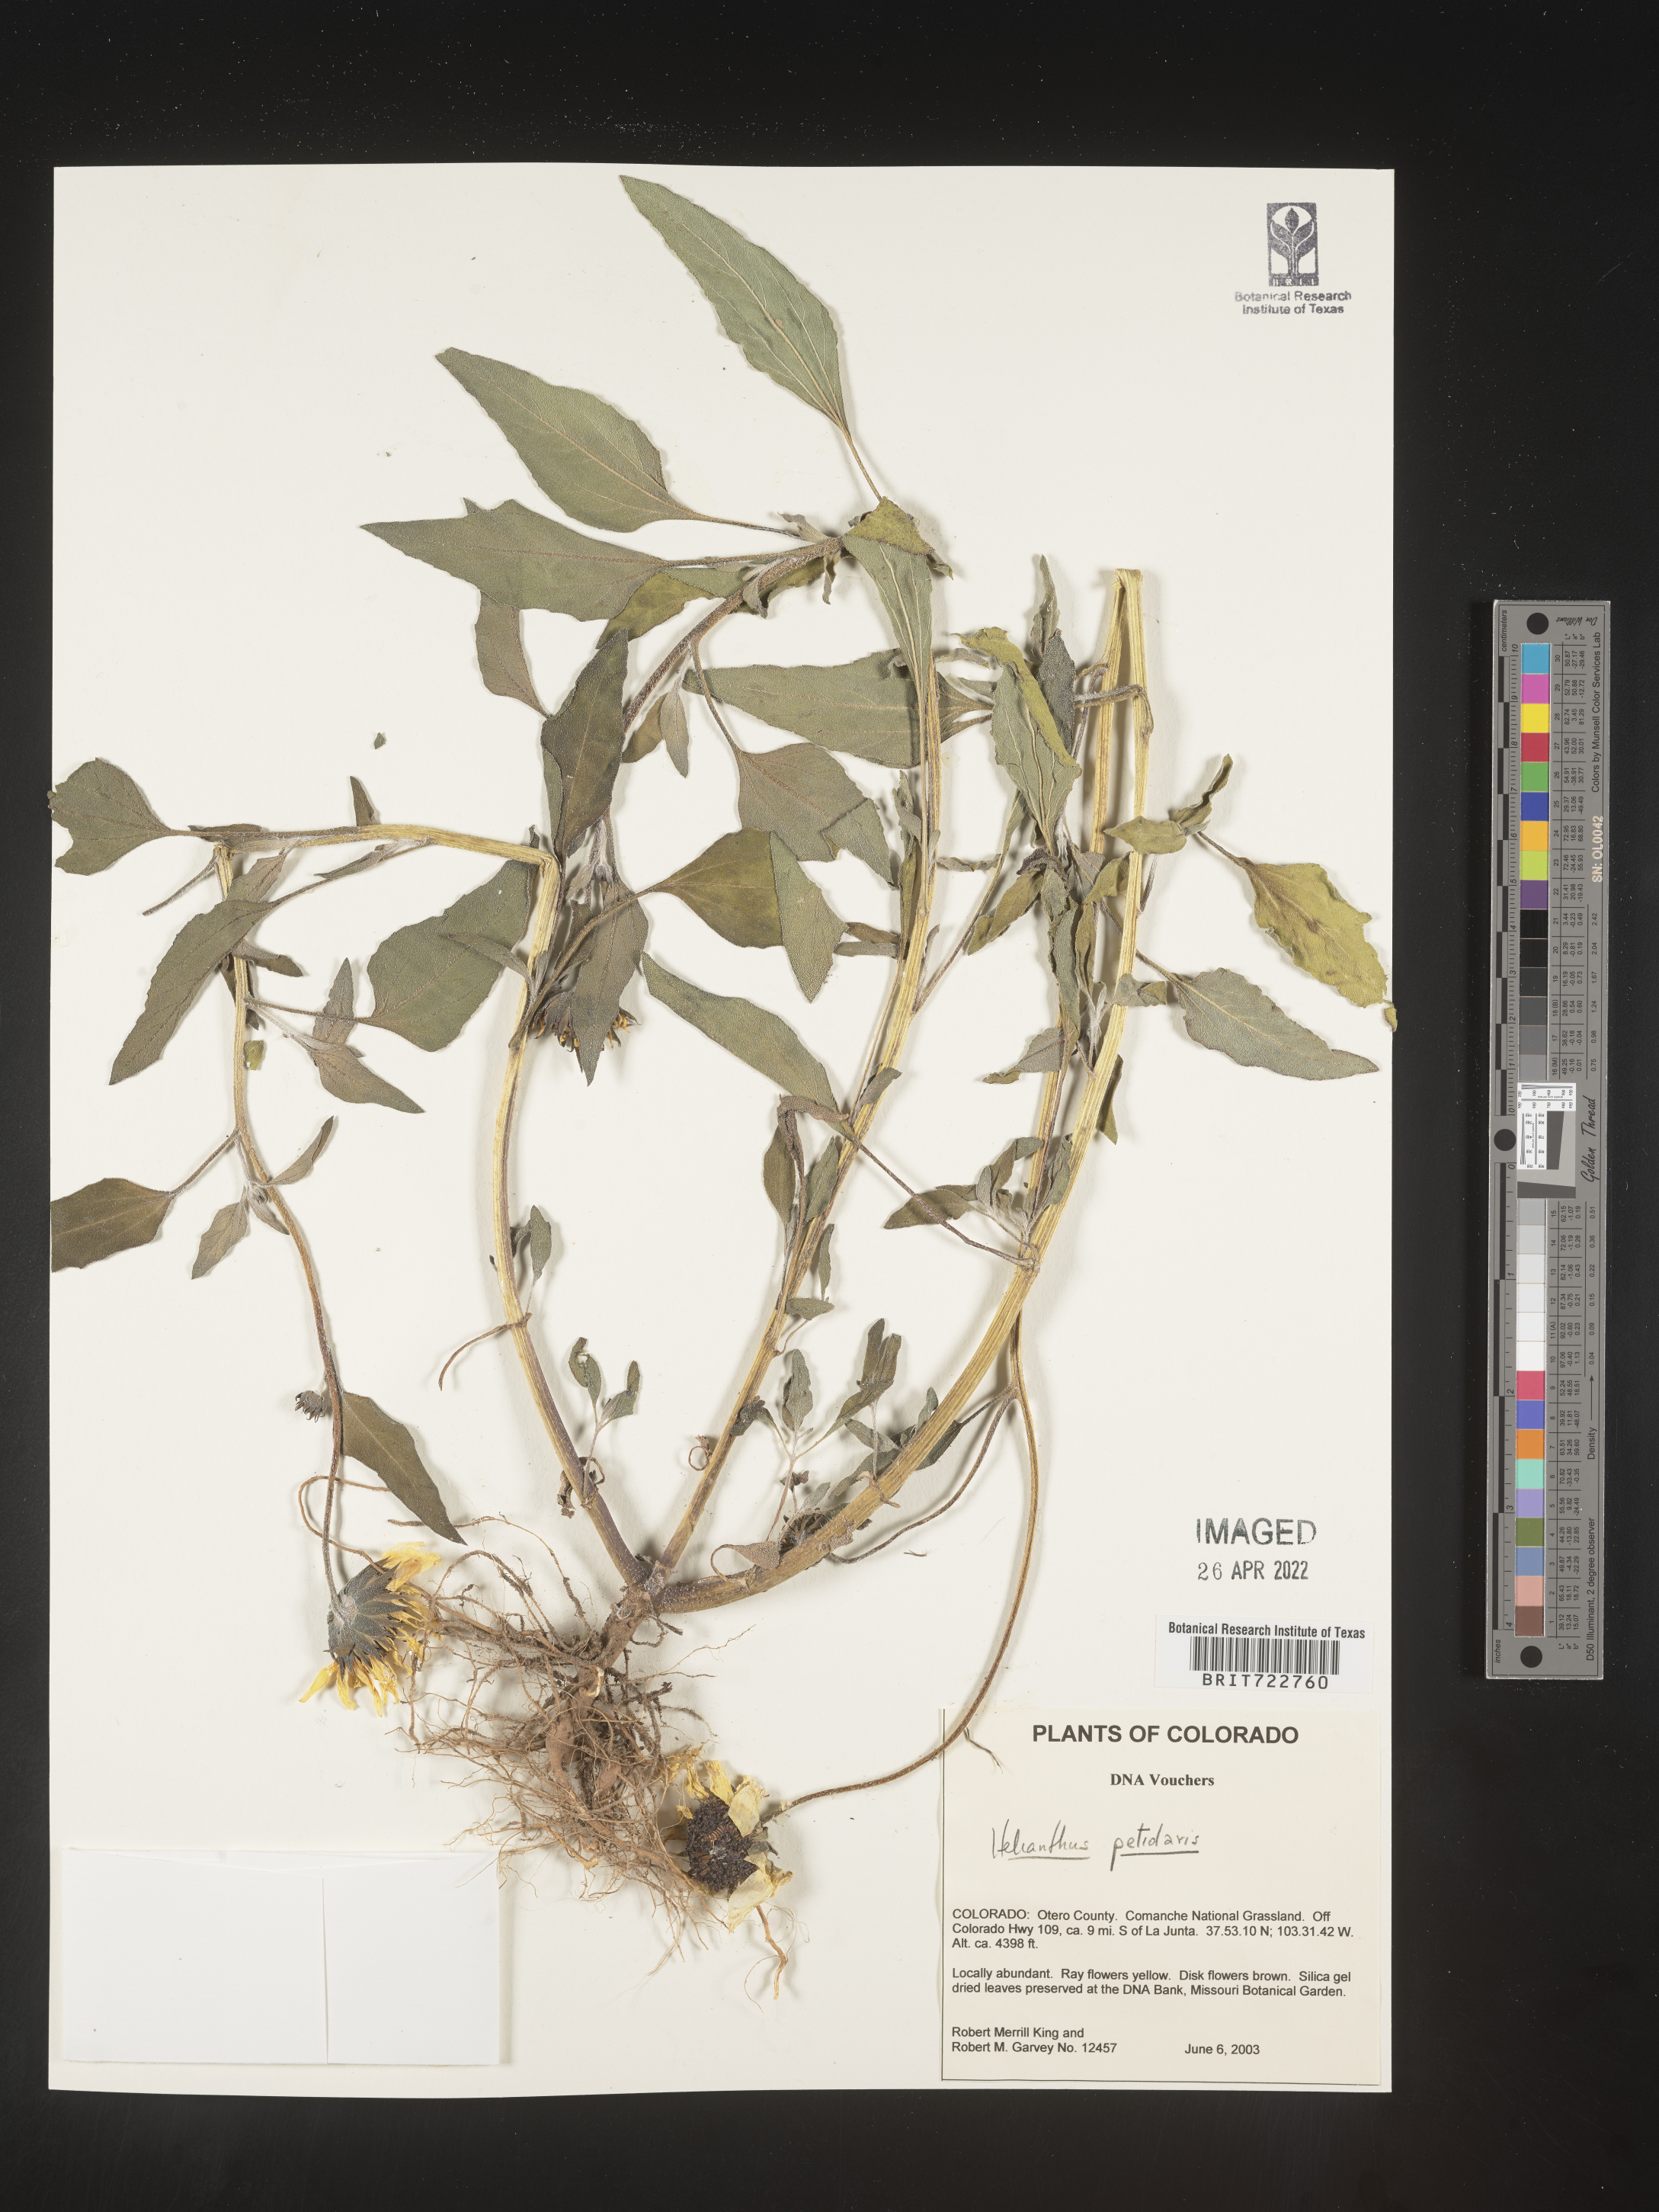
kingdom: Plantae
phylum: Tracheophyta
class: Magnoliopsida
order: Asterales
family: Asteraceae
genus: Helianthus
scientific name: Helianthus petiolaris
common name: Lesser sunflower
